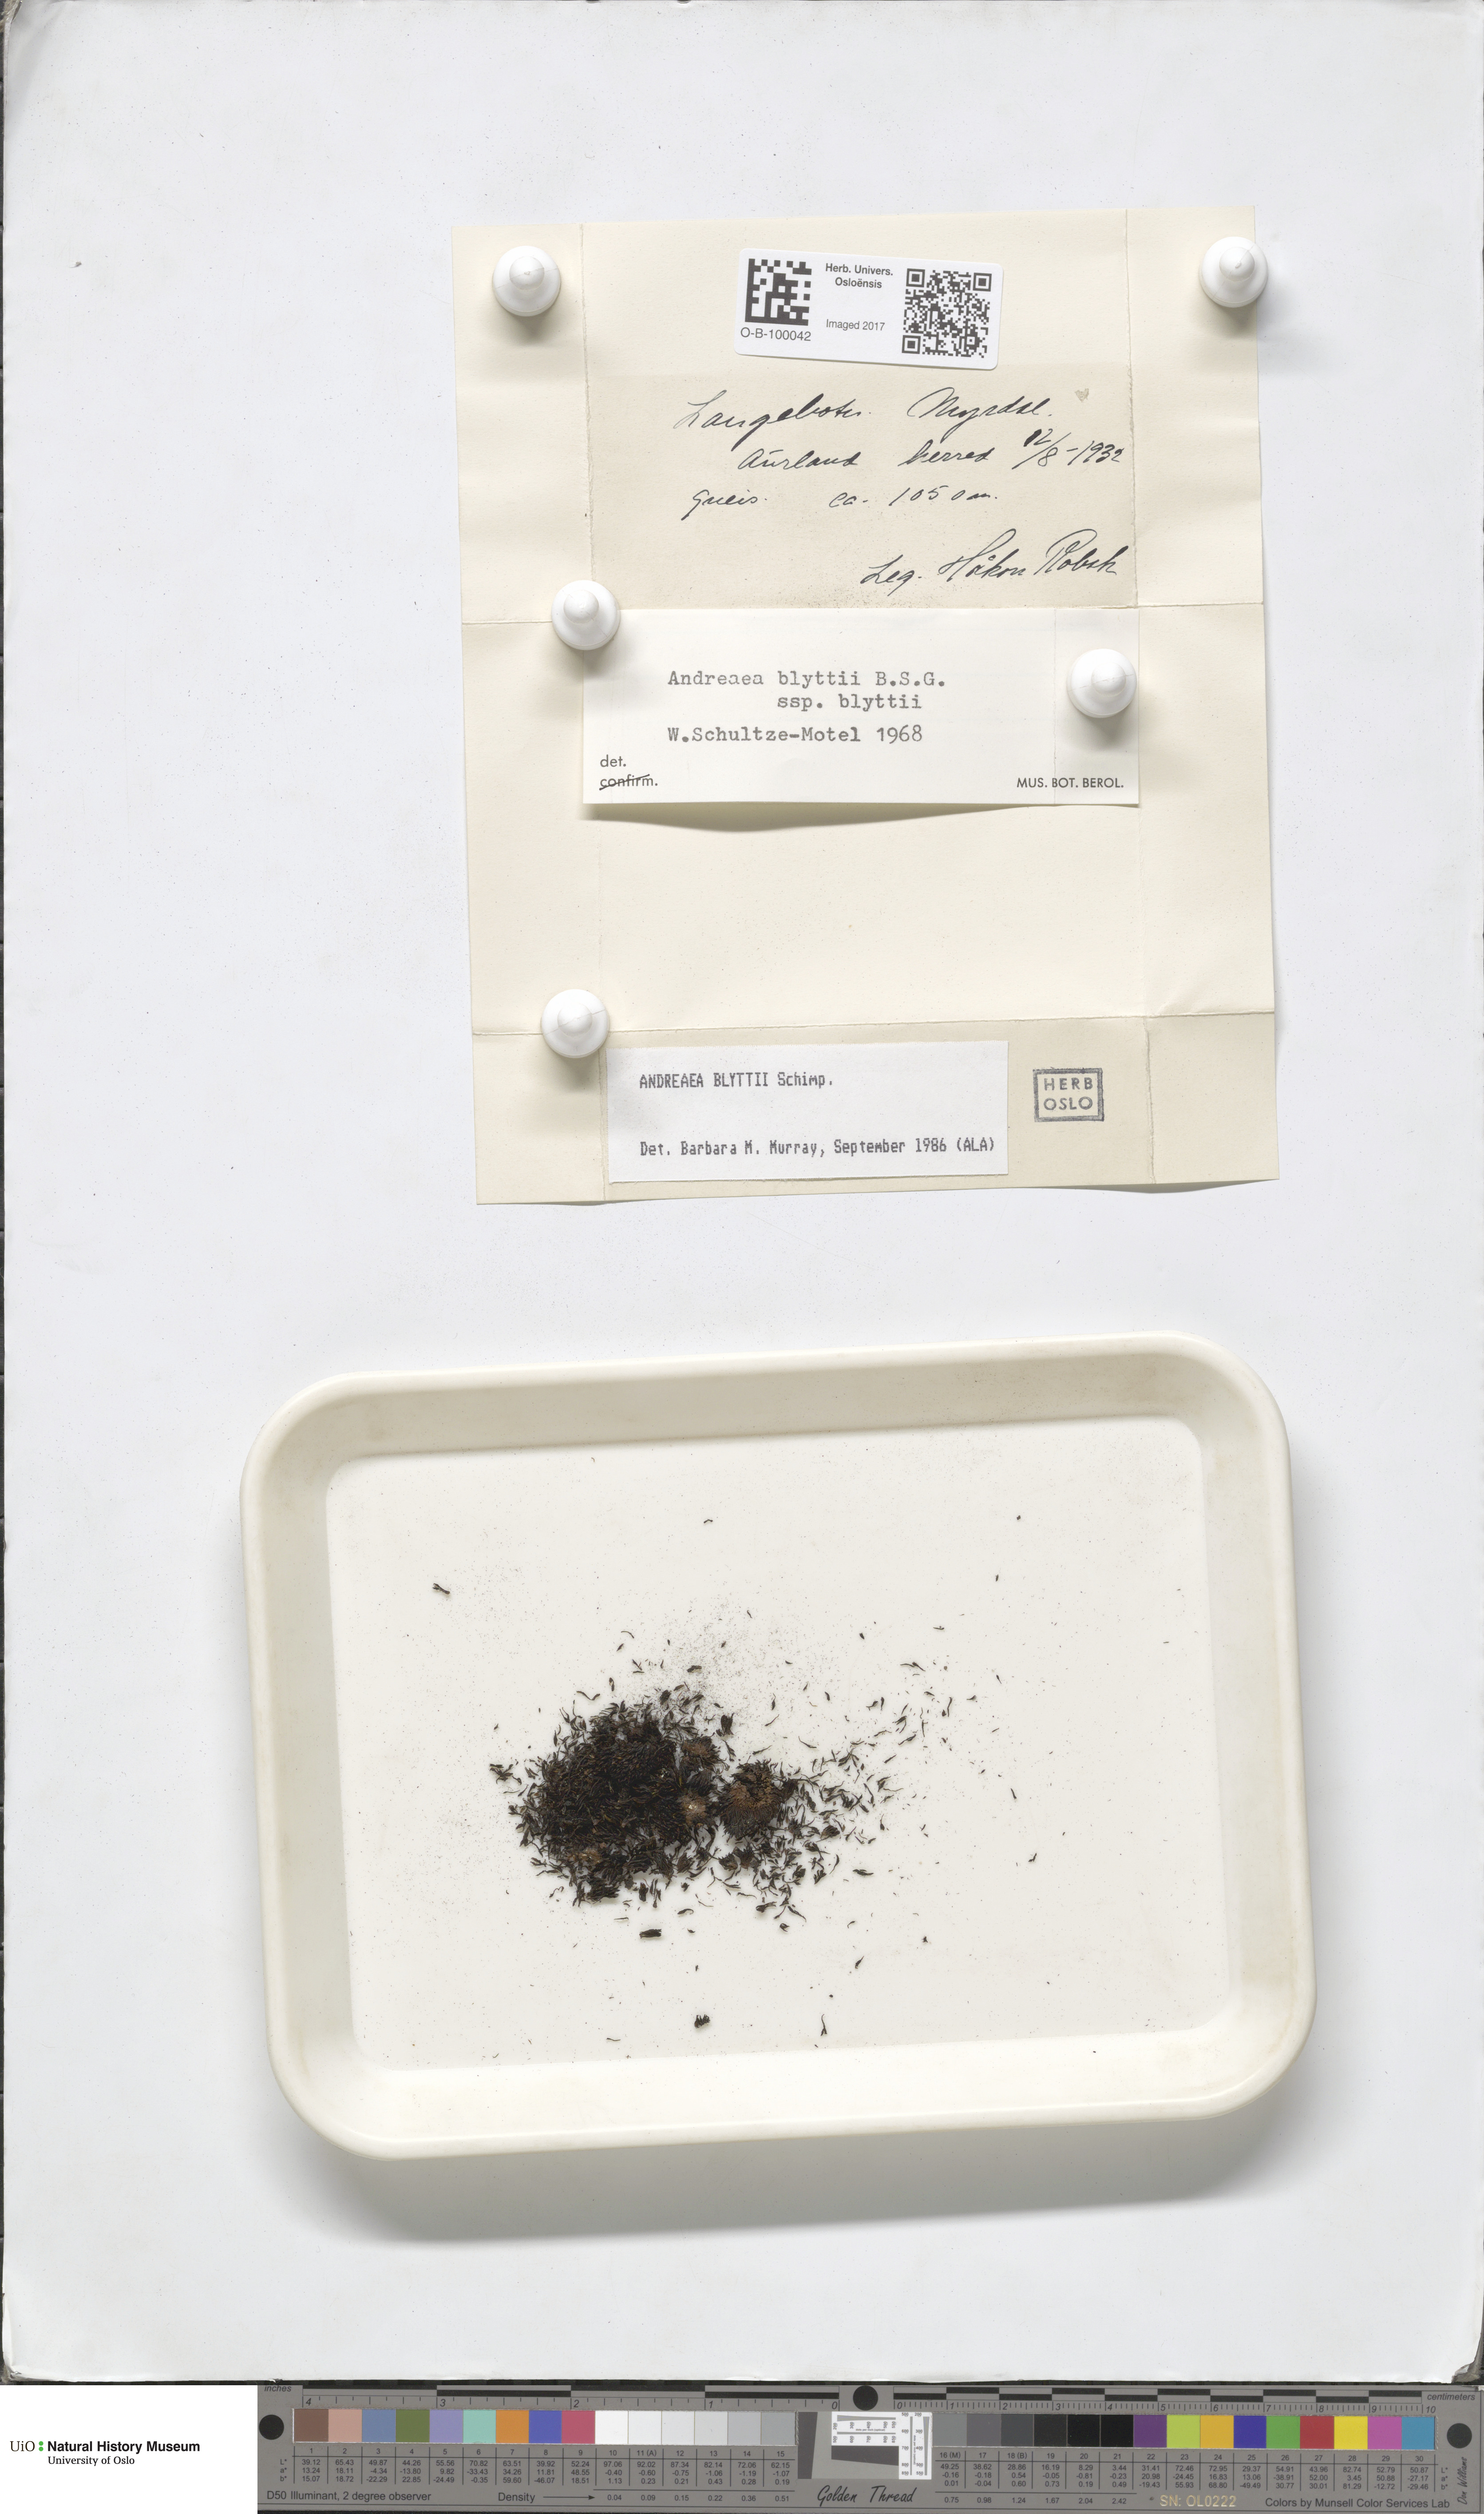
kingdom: Plantae
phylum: Bryophyta
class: Andreaeopsida
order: Andreaeales
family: Andreaeaceae
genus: Andreaea
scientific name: Andreaea blyttii
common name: Blytt's rock moss
